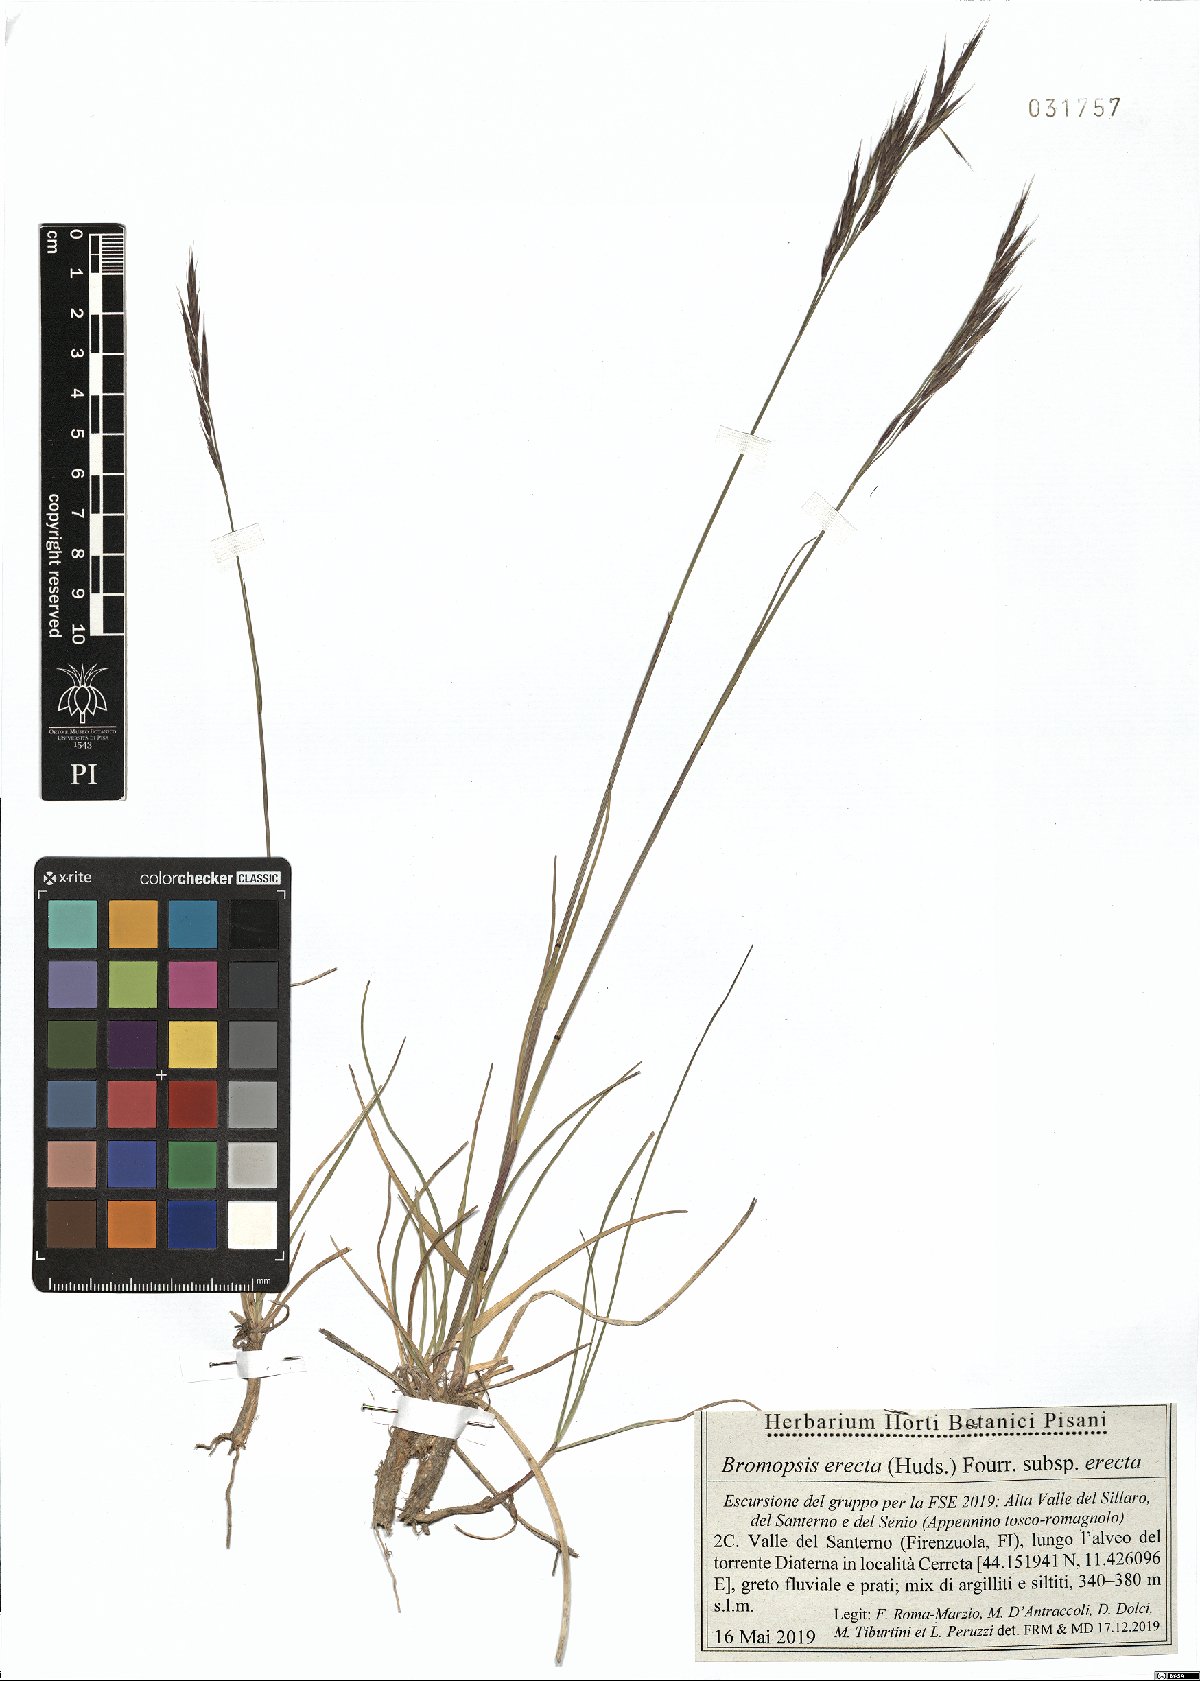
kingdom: Plantae
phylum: Tracheophyta
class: Liliopsida
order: Poales
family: Poaceae
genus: Bromus
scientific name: Bromus erectus
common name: Erect brome
